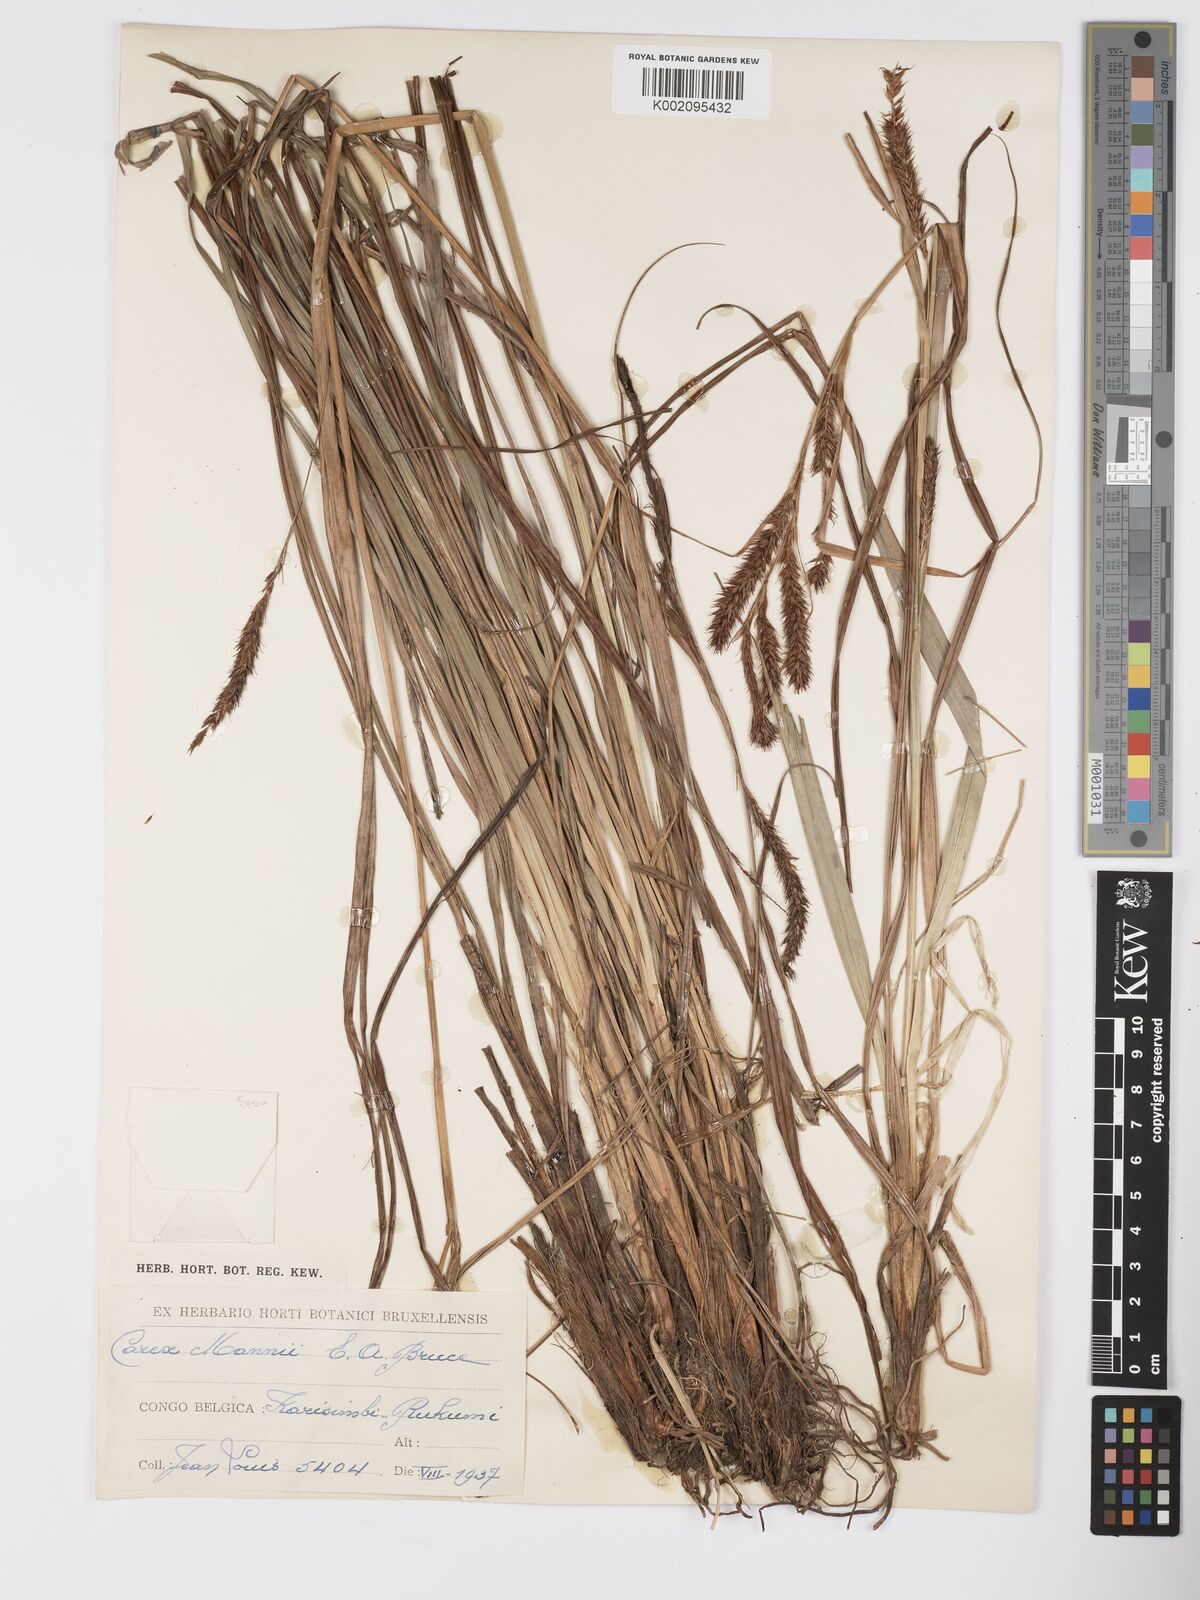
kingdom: Plantae
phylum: Tracheophyta
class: Liliopsida
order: Poales
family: Cyperaceae
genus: Carex
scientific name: Carex fischeri
